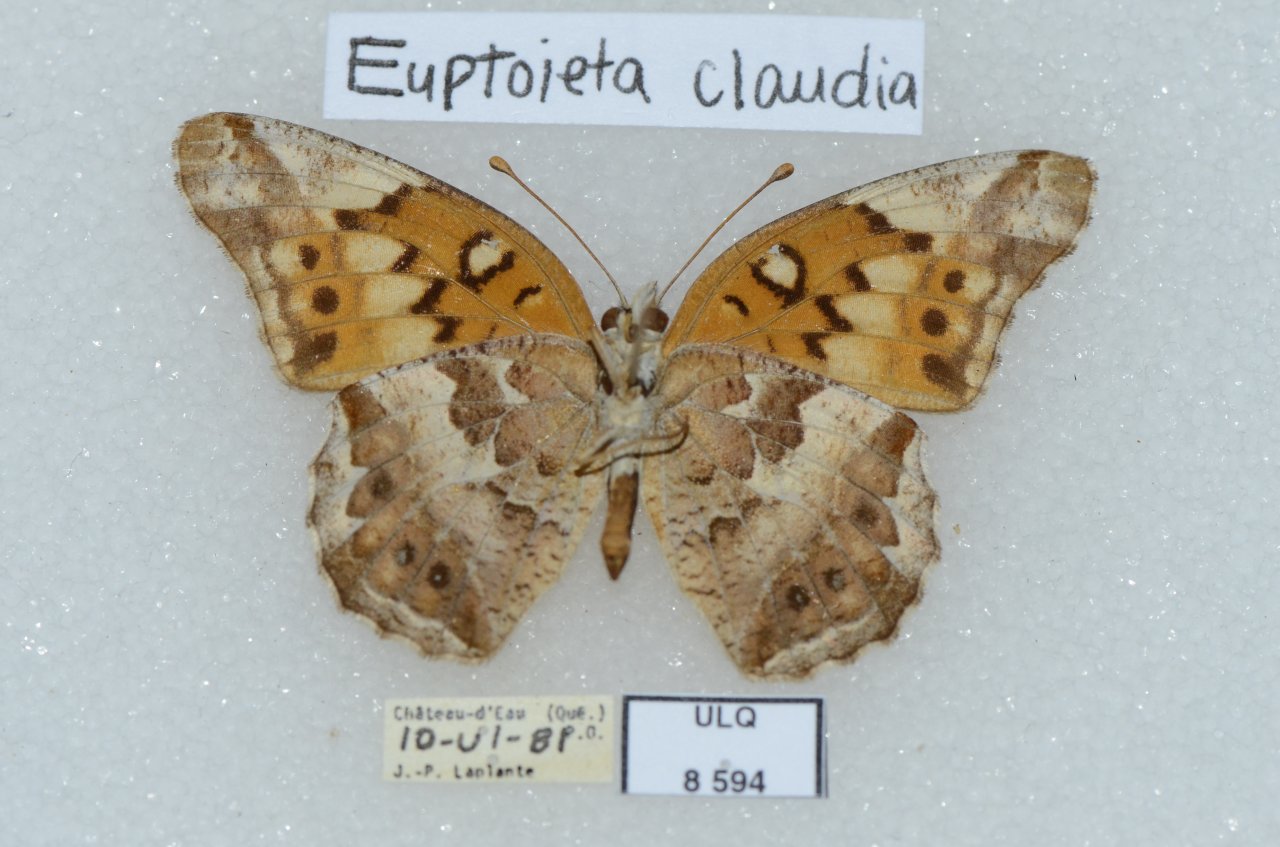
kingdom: Animalia
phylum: Arthropoda
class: Insecta
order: Lepidoptera
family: Nymphalidae
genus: Euptoieta
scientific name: Euptoieta claudia
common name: Variegated Fritillary
